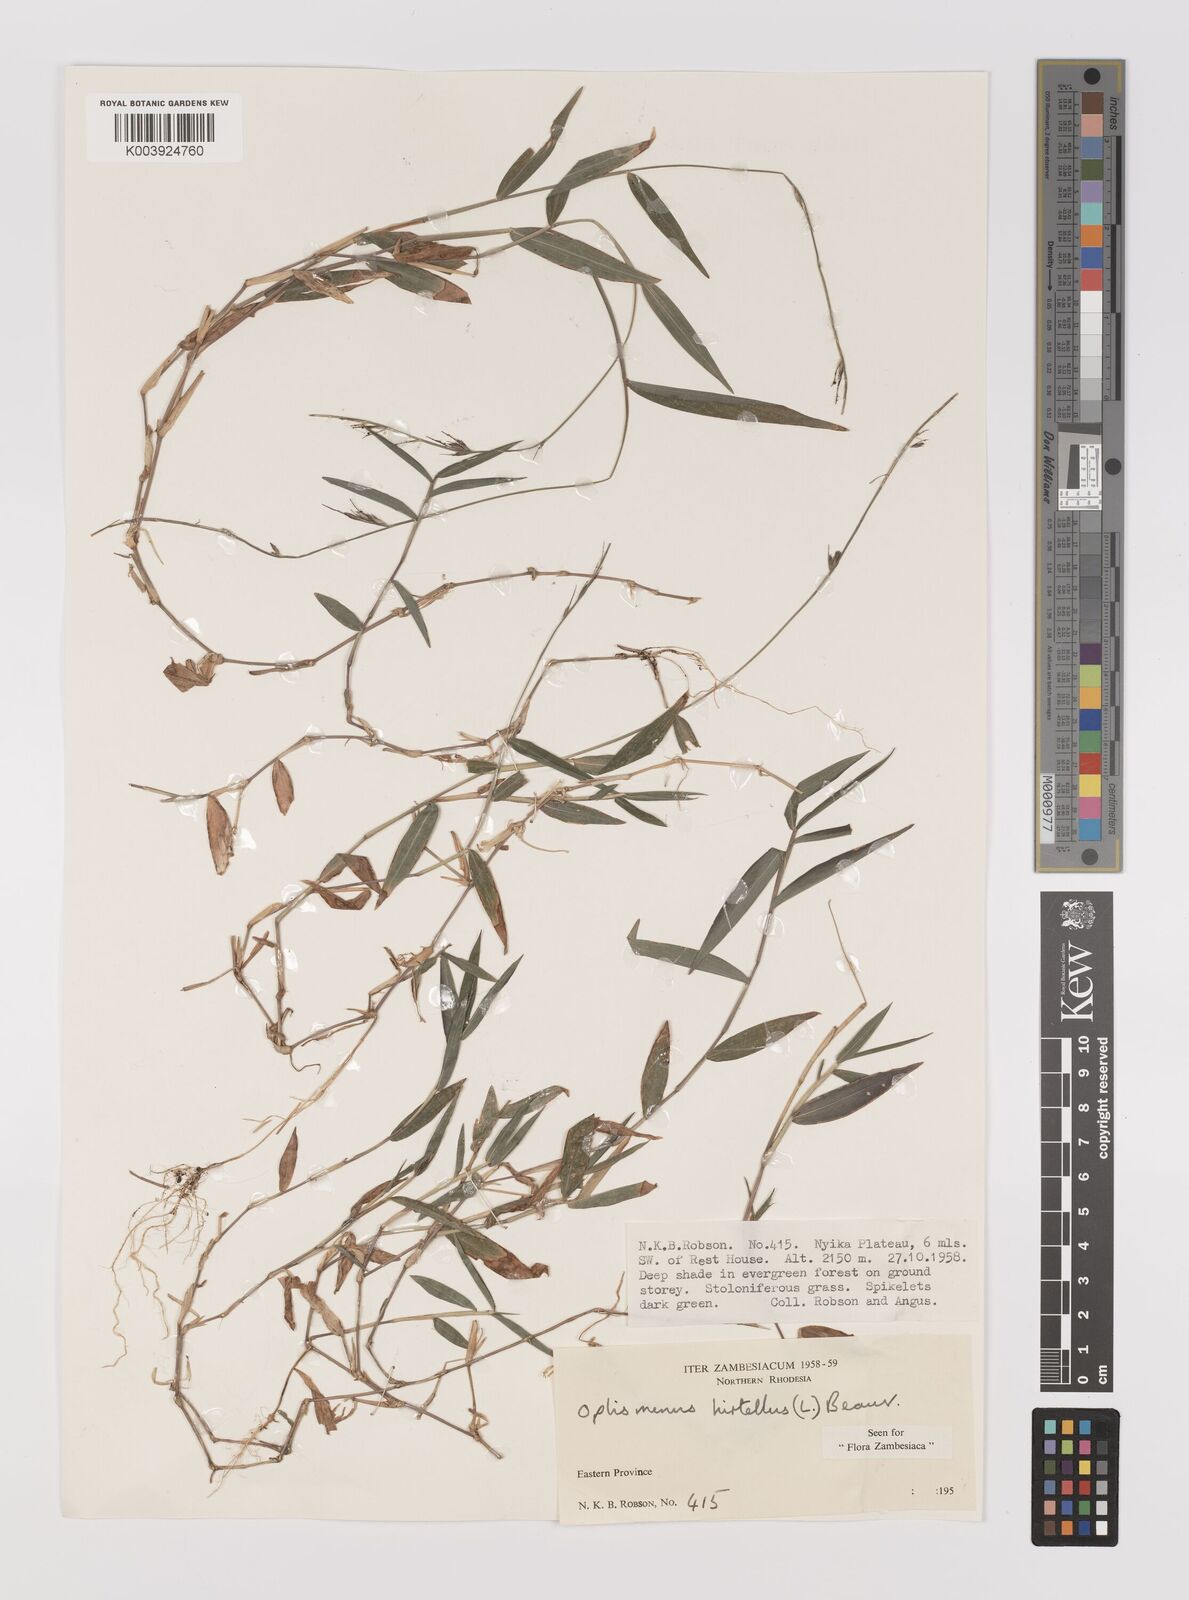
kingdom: Plantae
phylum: Tracheophyta
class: Liliopsida
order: Poales
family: Poaceae
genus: Oplismenus
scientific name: Oplismenus hirtellus
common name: Basketgrass
